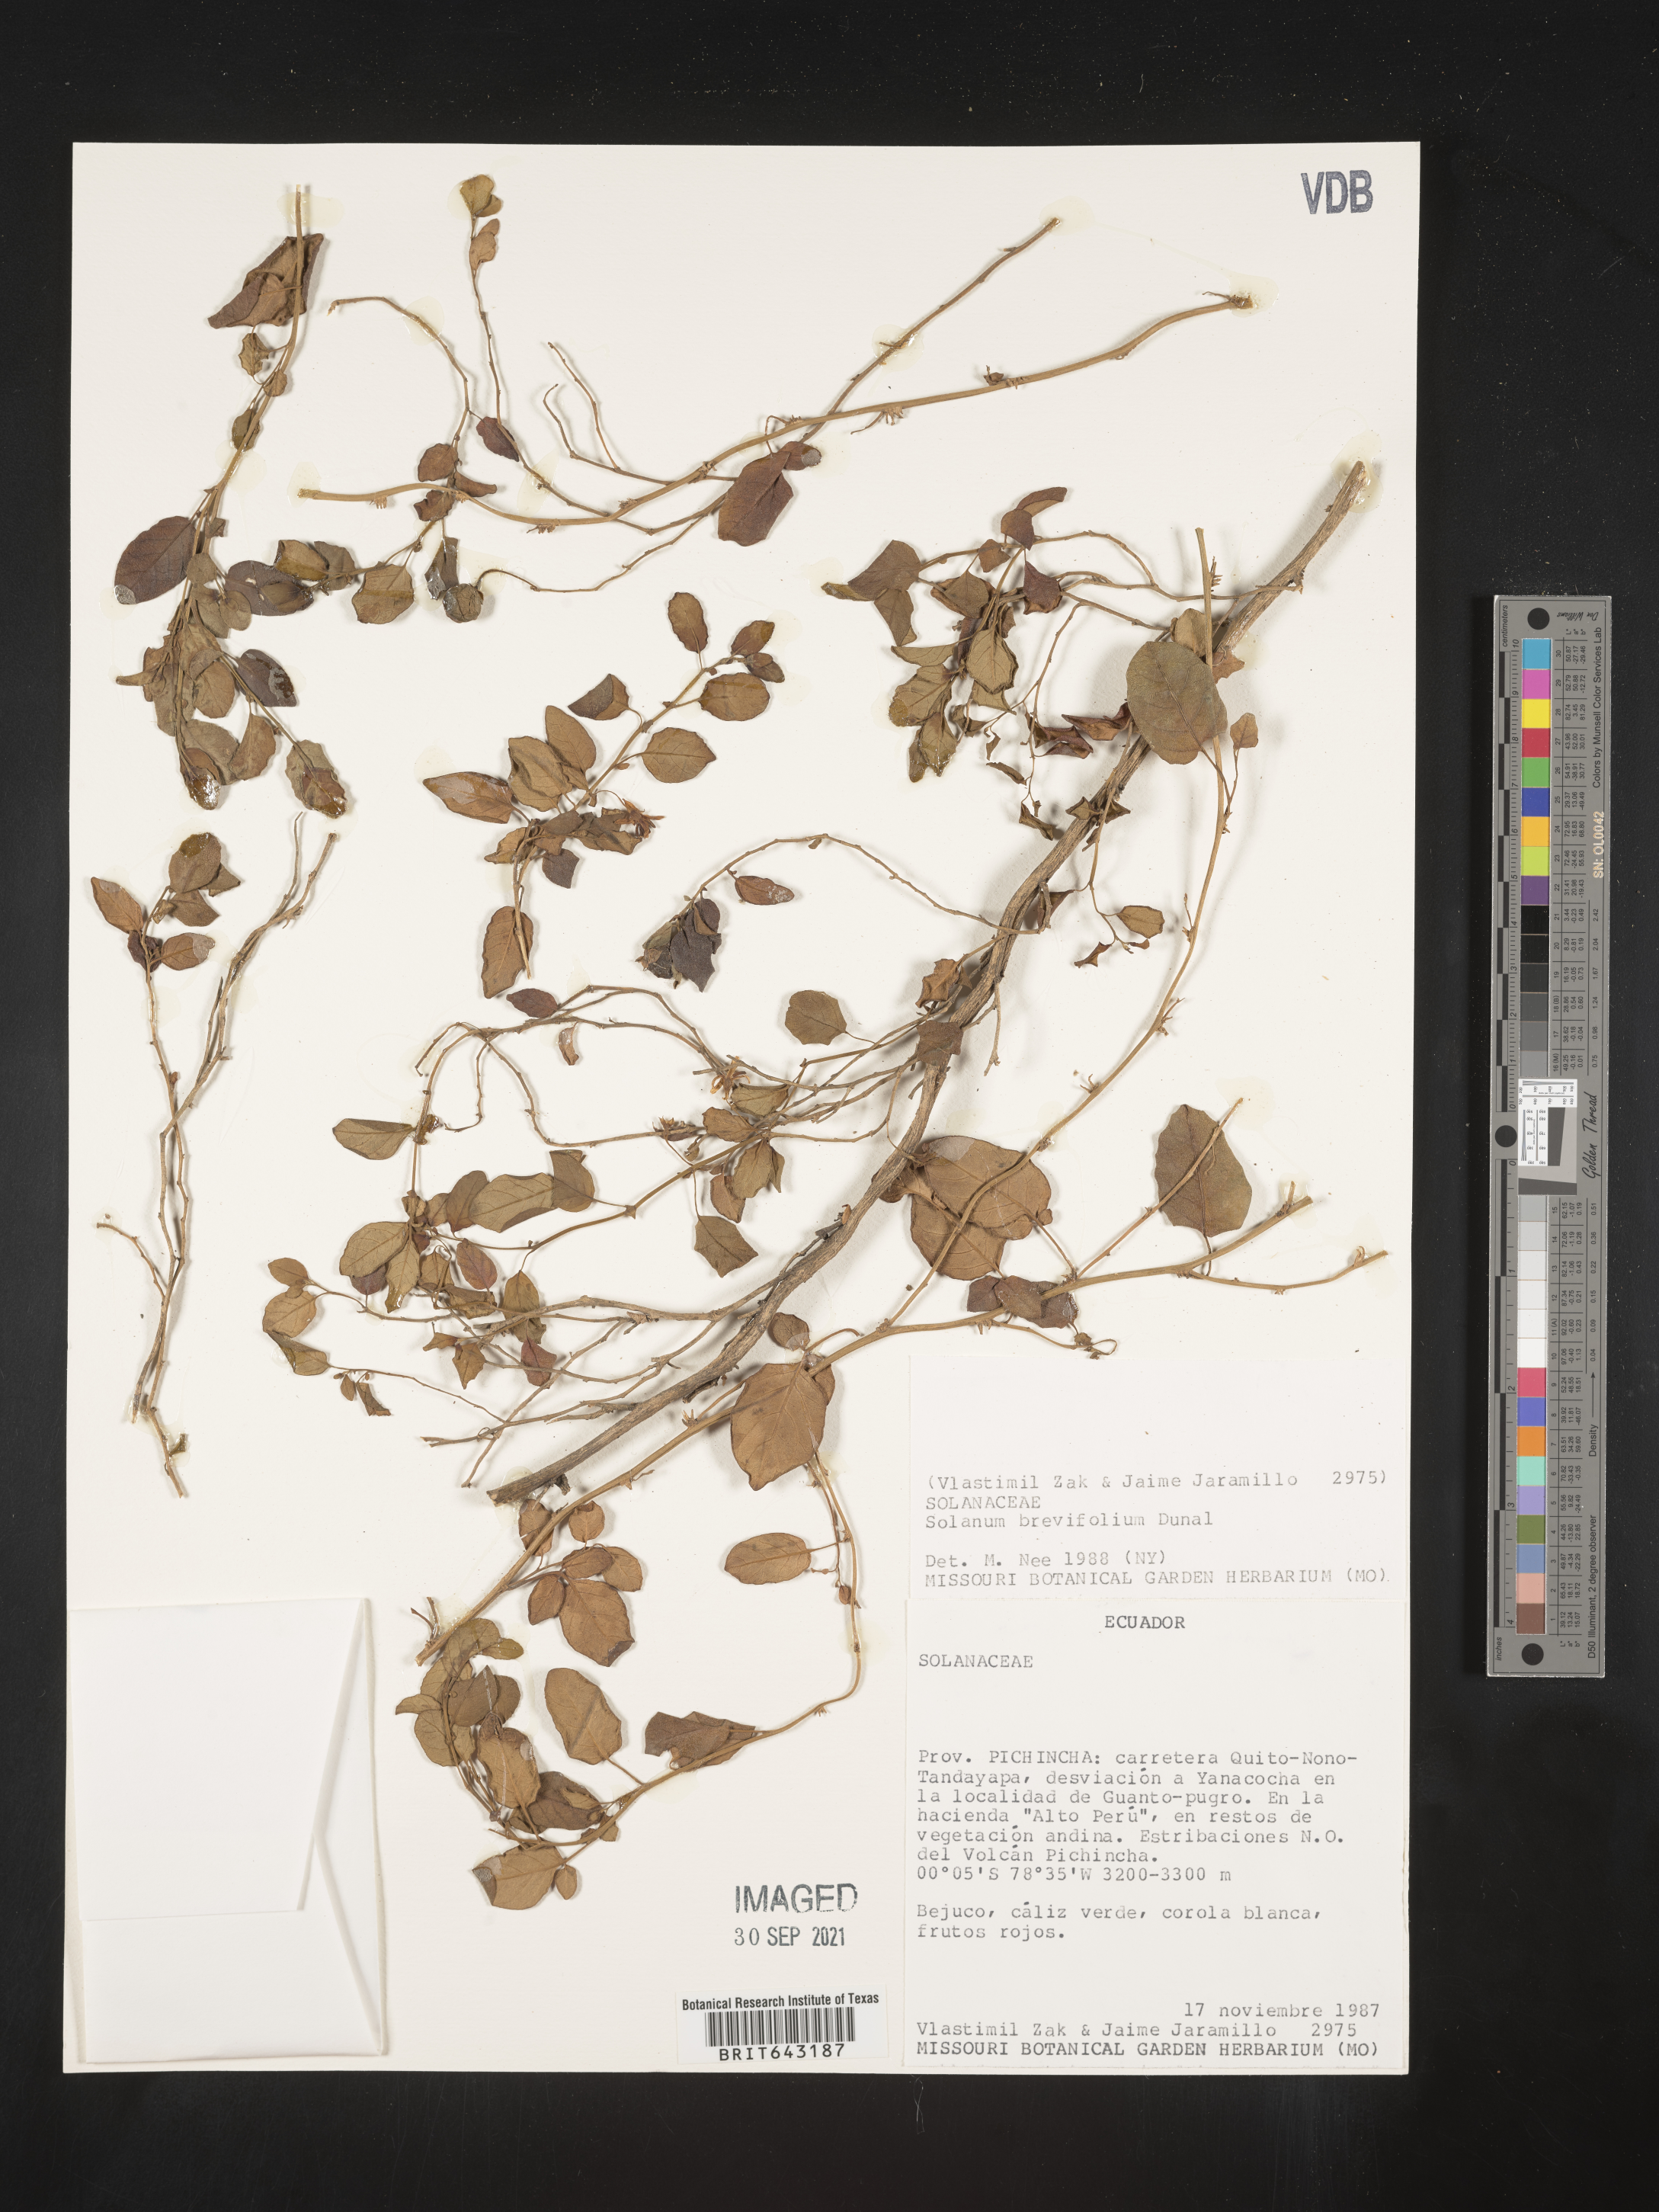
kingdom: Plantae
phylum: Tracheophyta
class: Magnoliopsida
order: Solanales
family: Solanaceae
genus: Solanum
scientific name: Solanum
